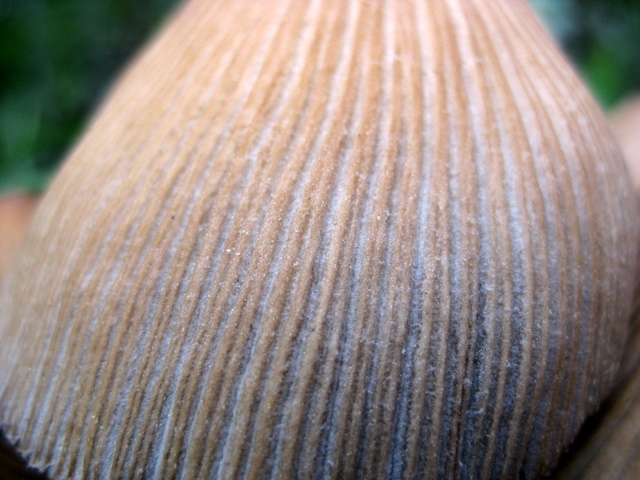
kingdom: Fungi
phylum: Basidiomycota
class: Agaricomycetes
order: Agaricales
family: Psathyrellaceae
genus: Coprinellus
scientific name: Coprinellus micaceus
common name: glimmer-blækhat
